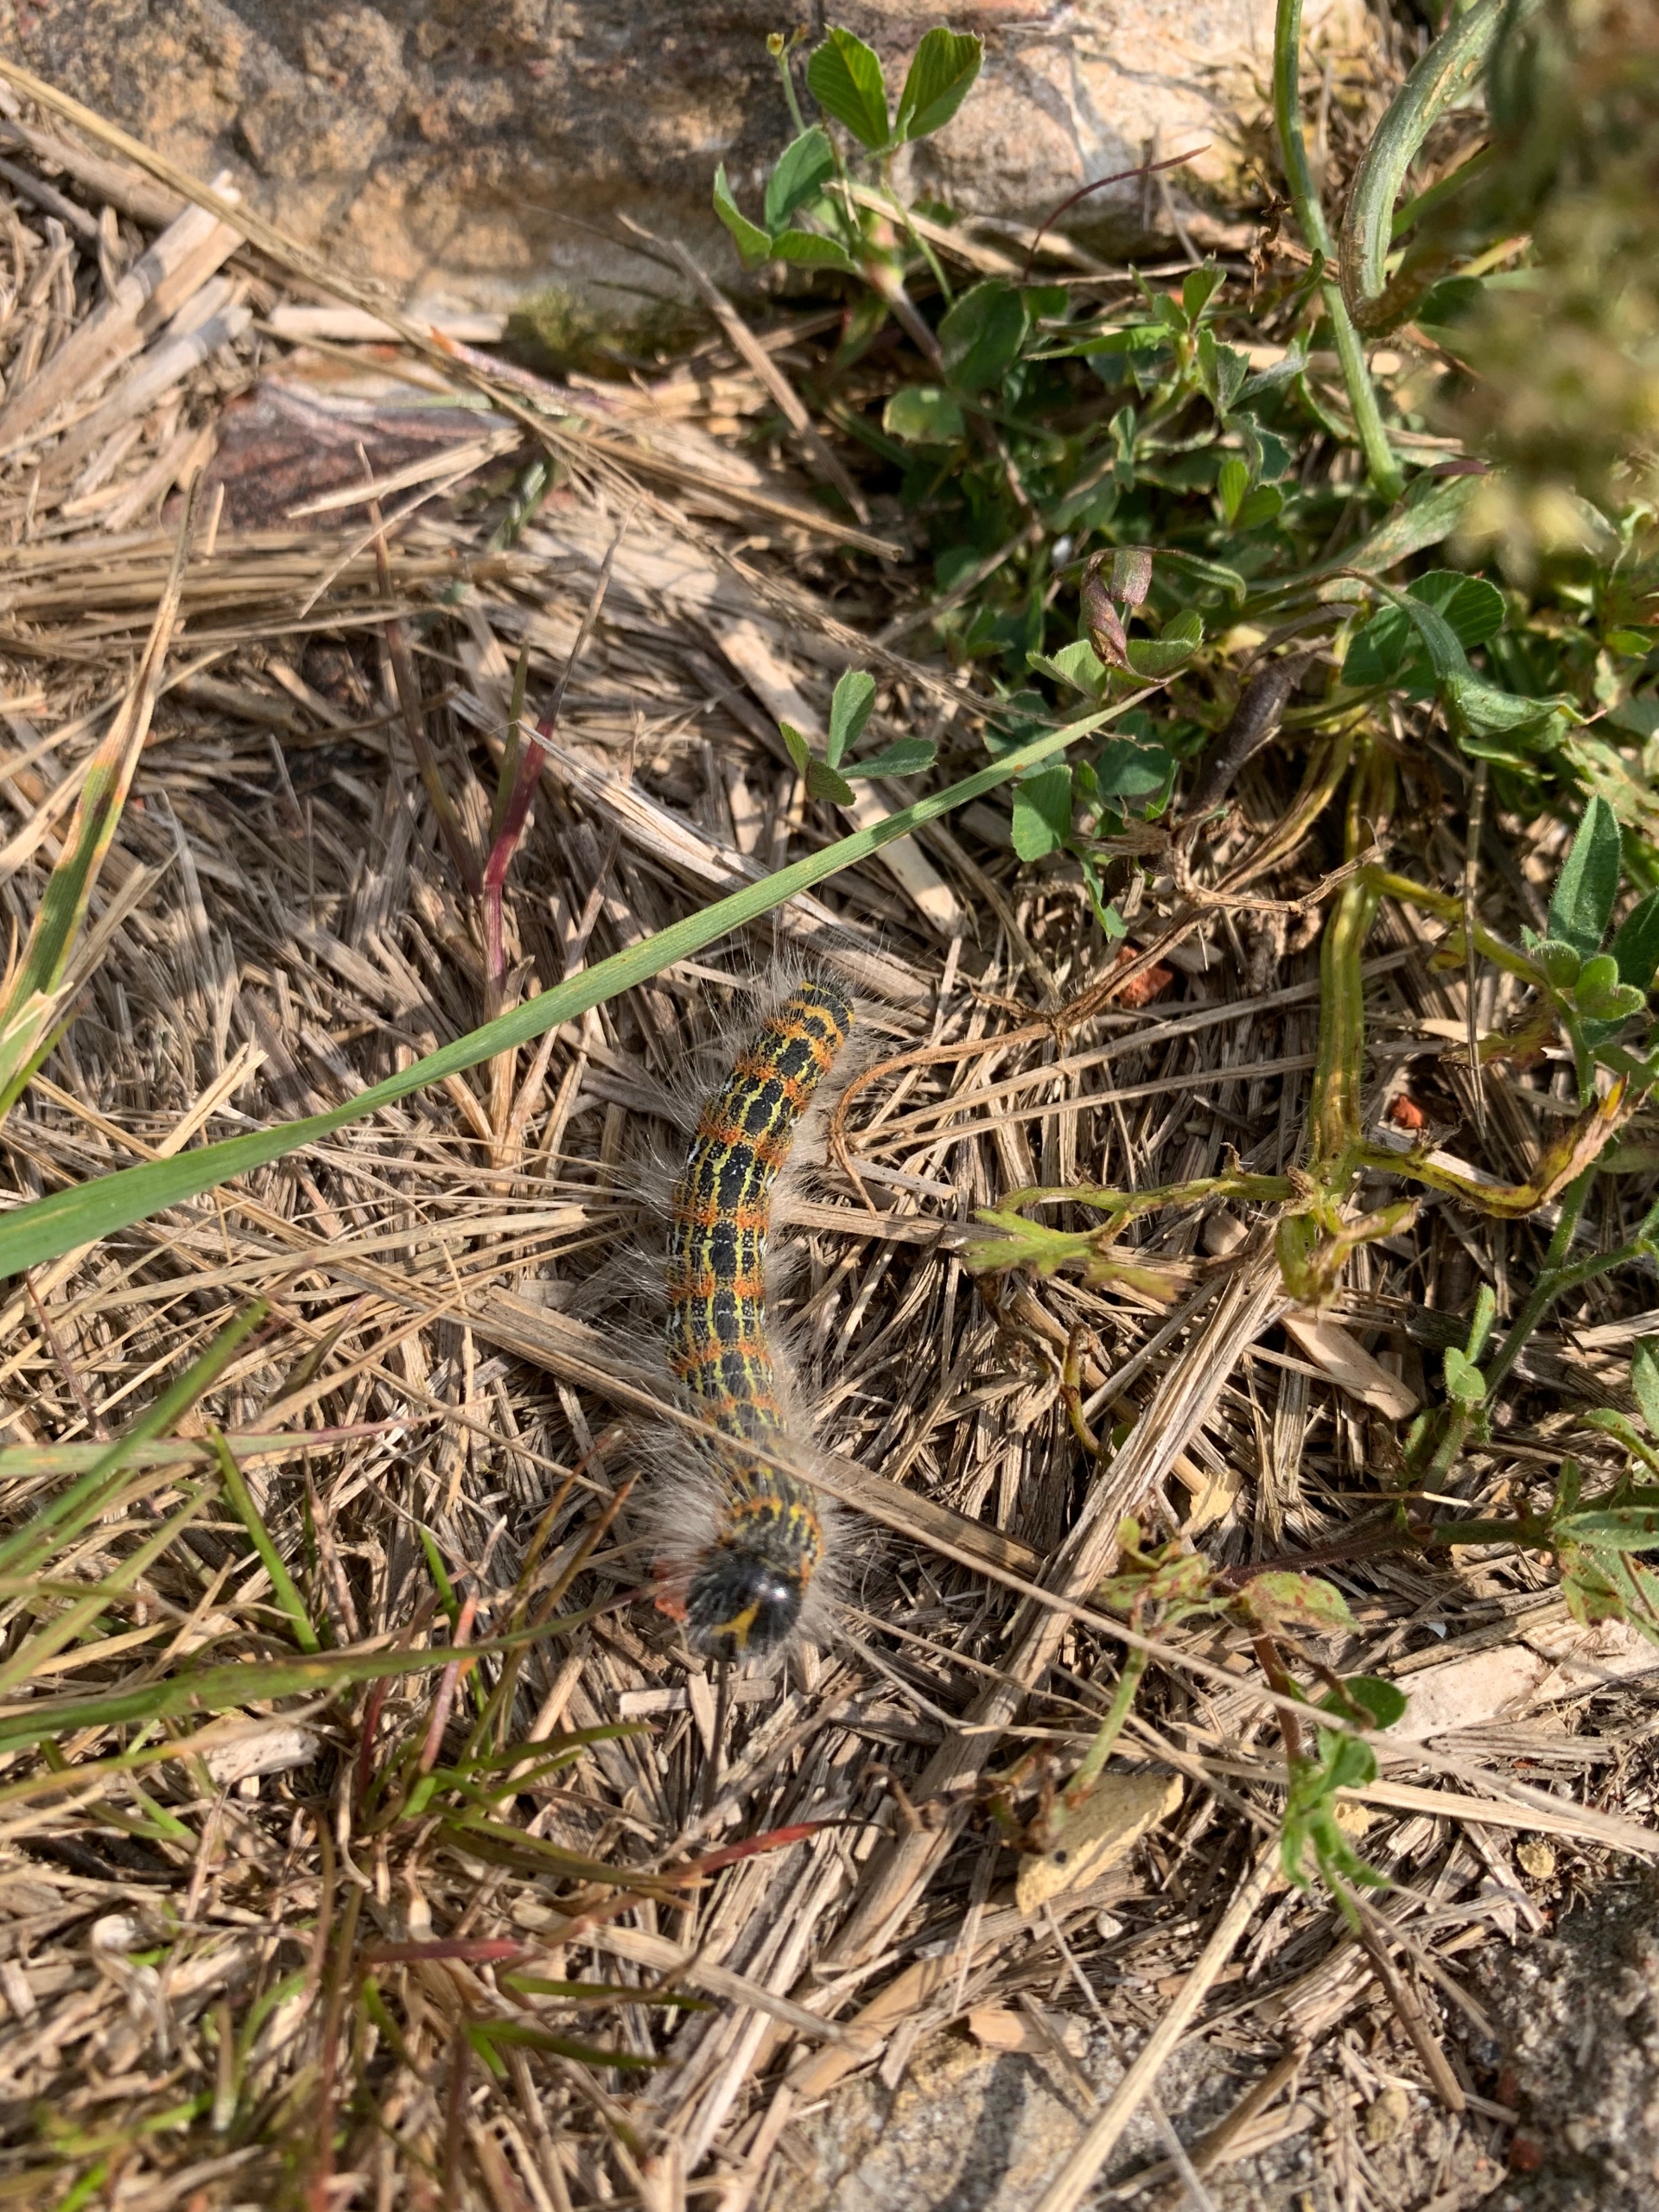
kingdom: Animalia
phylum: Arthropoda
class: Insecta
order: Lepidoptera
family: Notodontidae
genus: Phalera
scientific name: Phalera bucephala
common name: Måneplet
